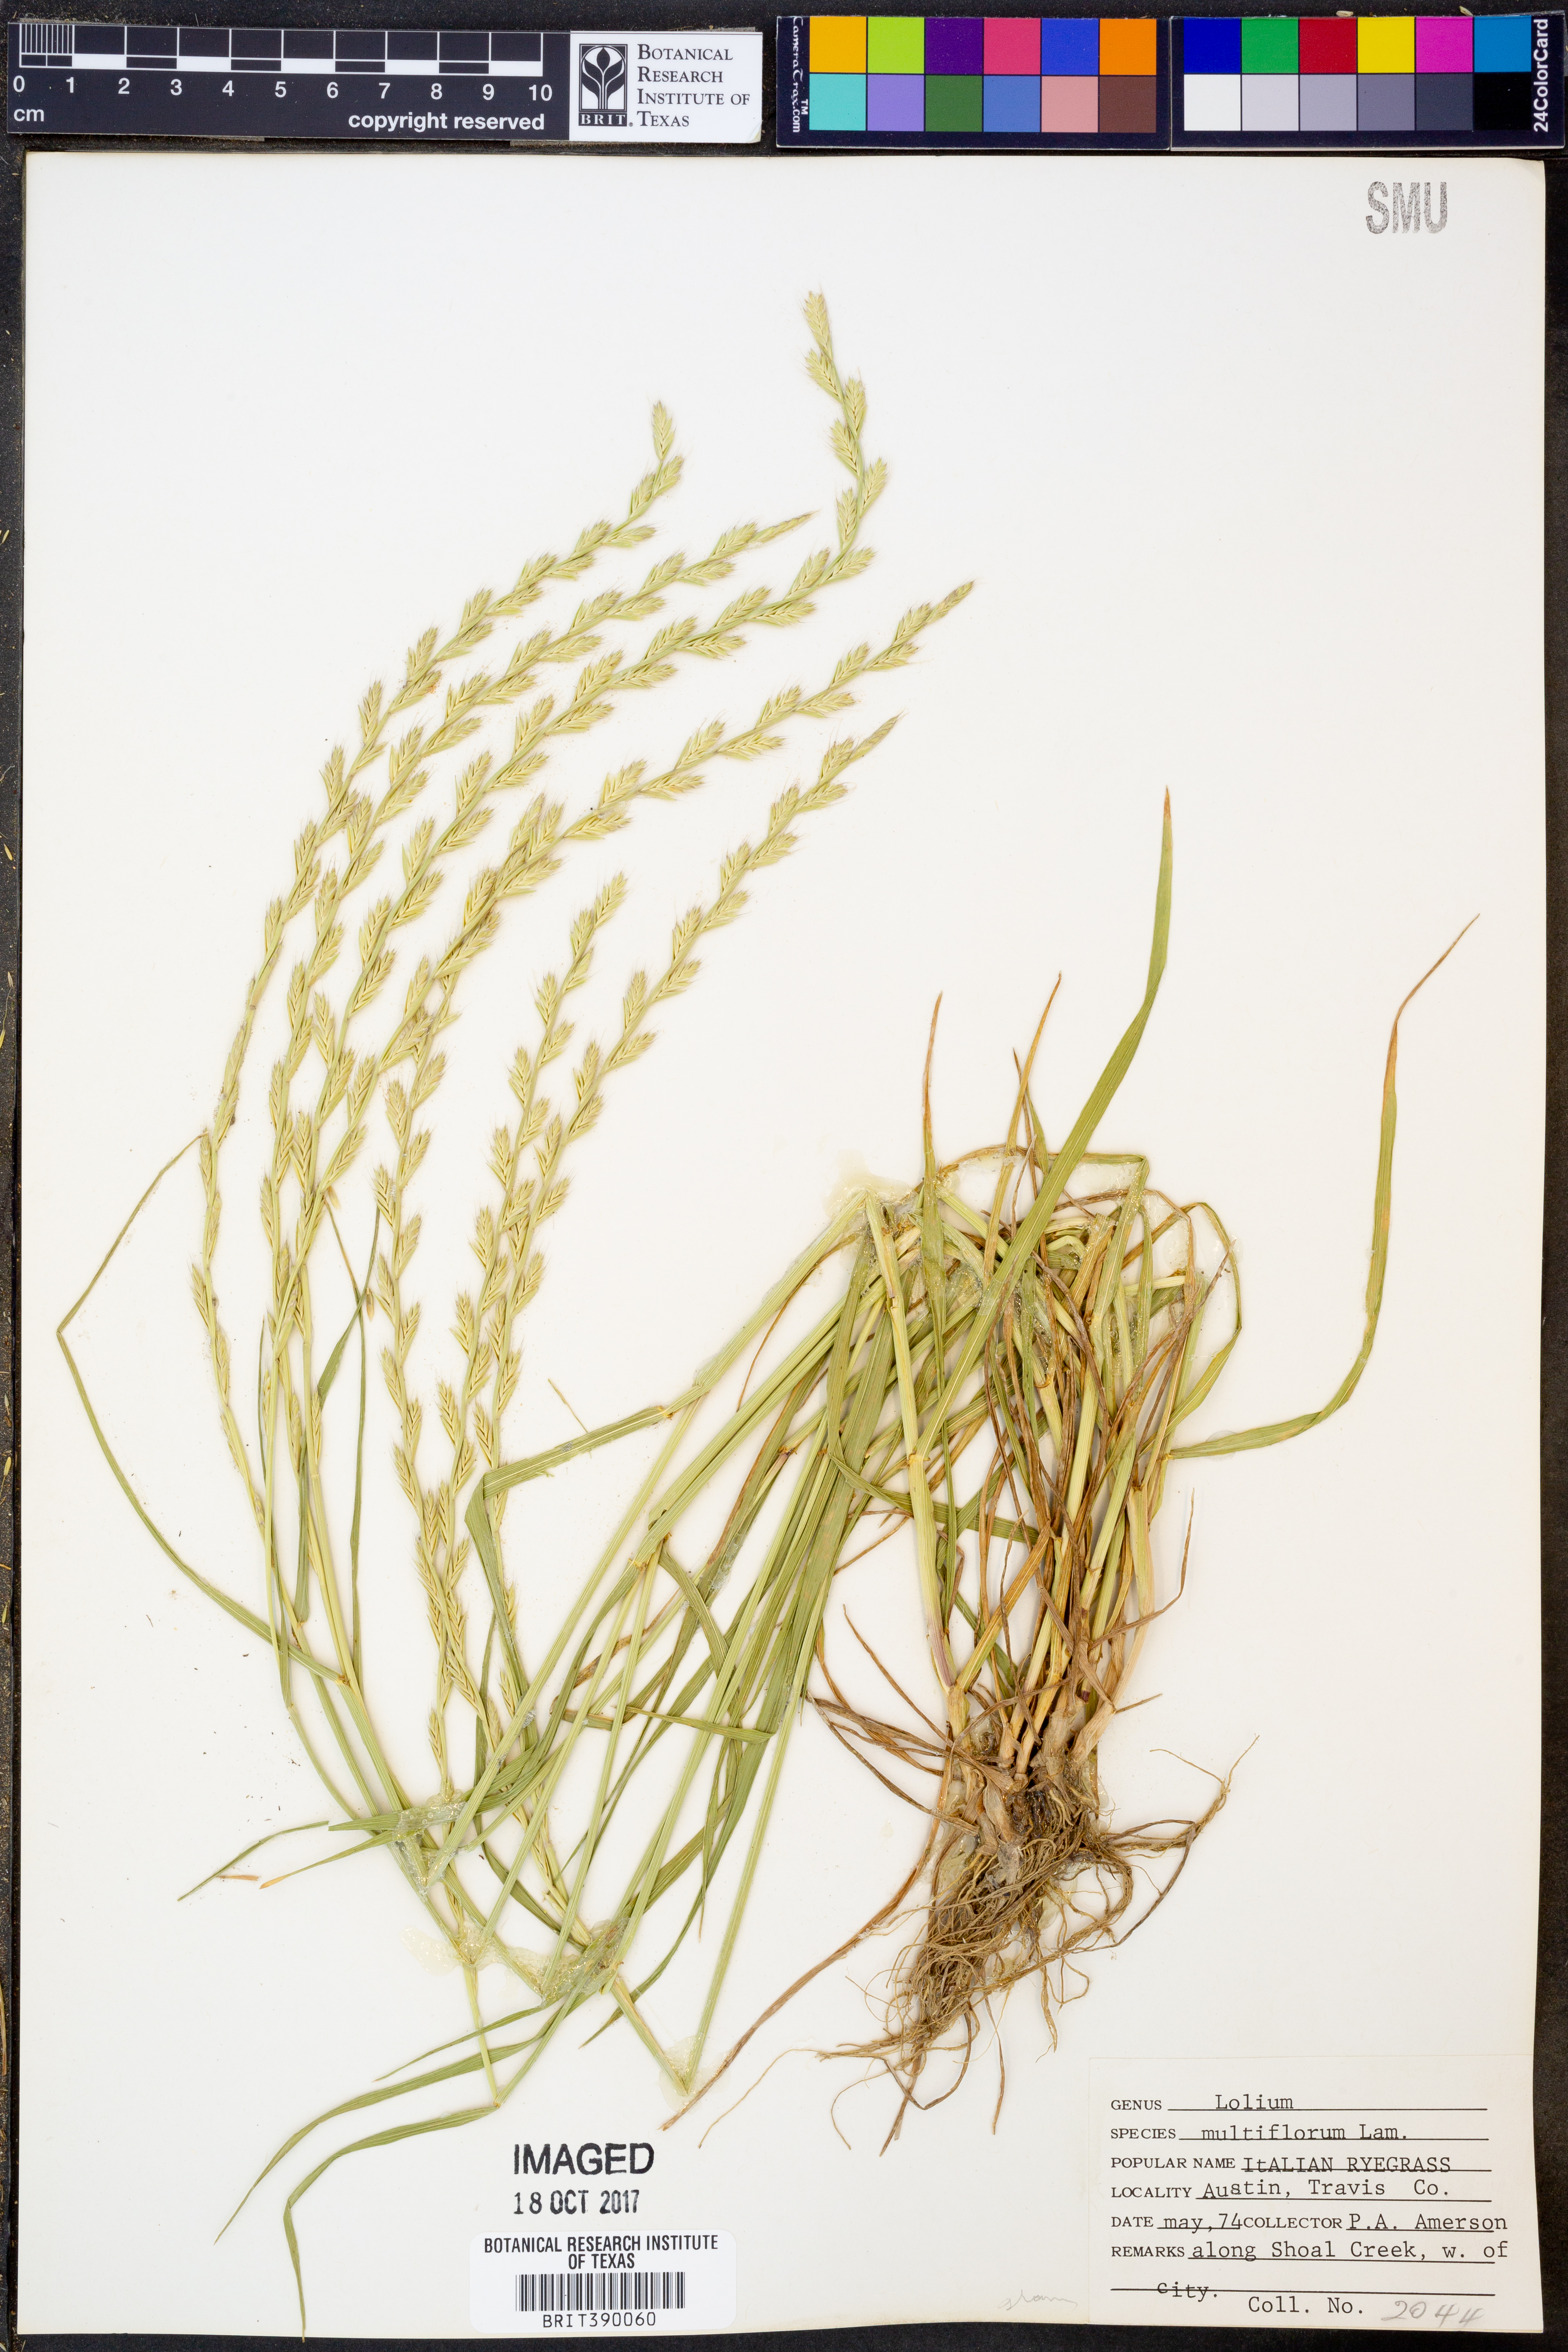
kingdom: Plantae
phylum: Tracheophyta
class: Liliopsida
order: Poales
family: Poaceae
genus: Lolium
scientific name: Lolium multiflorum
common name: Annual ryegrass
